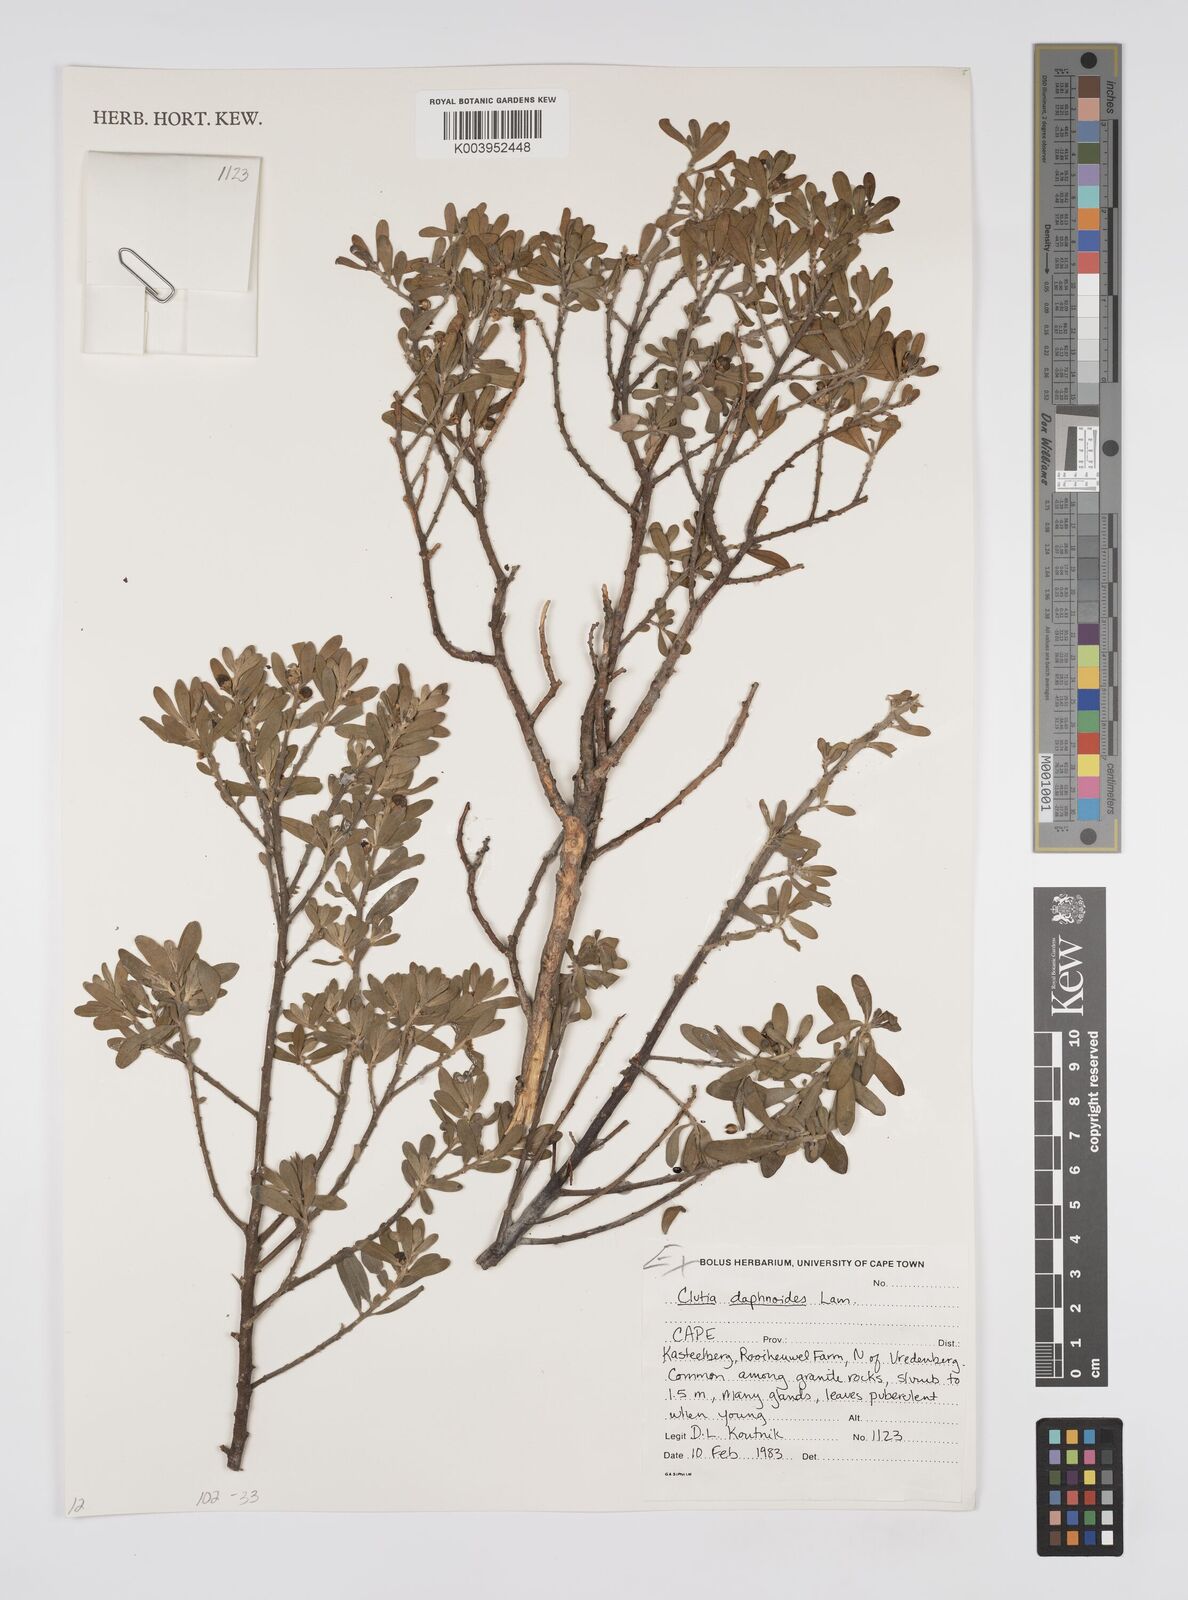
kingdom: Plantae
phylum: Tracheophyta
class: Magnoliopsida
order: Malpighiales
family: Peraceae
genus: Clutia
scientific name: Clutia daphnoides
